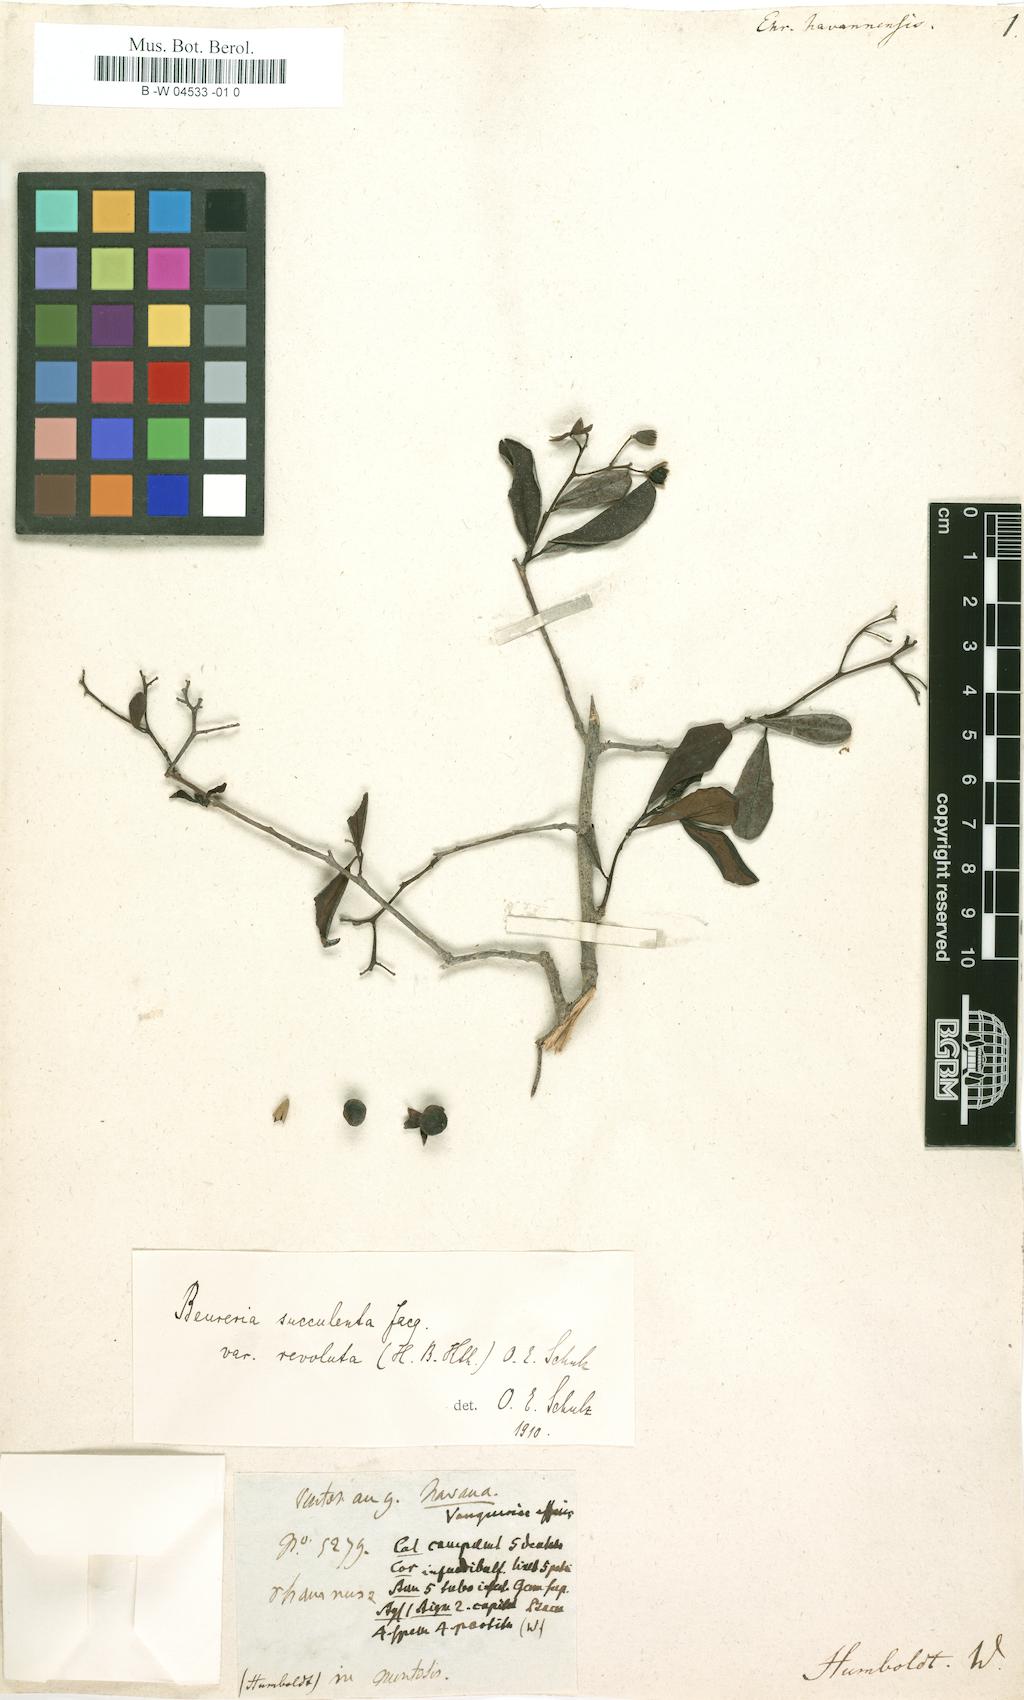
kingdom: Plantae
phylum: Tracheophyta
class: Magnoliopsida
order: Boraginales
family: Ehretiaceae
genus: Bourreria
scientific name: Bourreria havanensis
